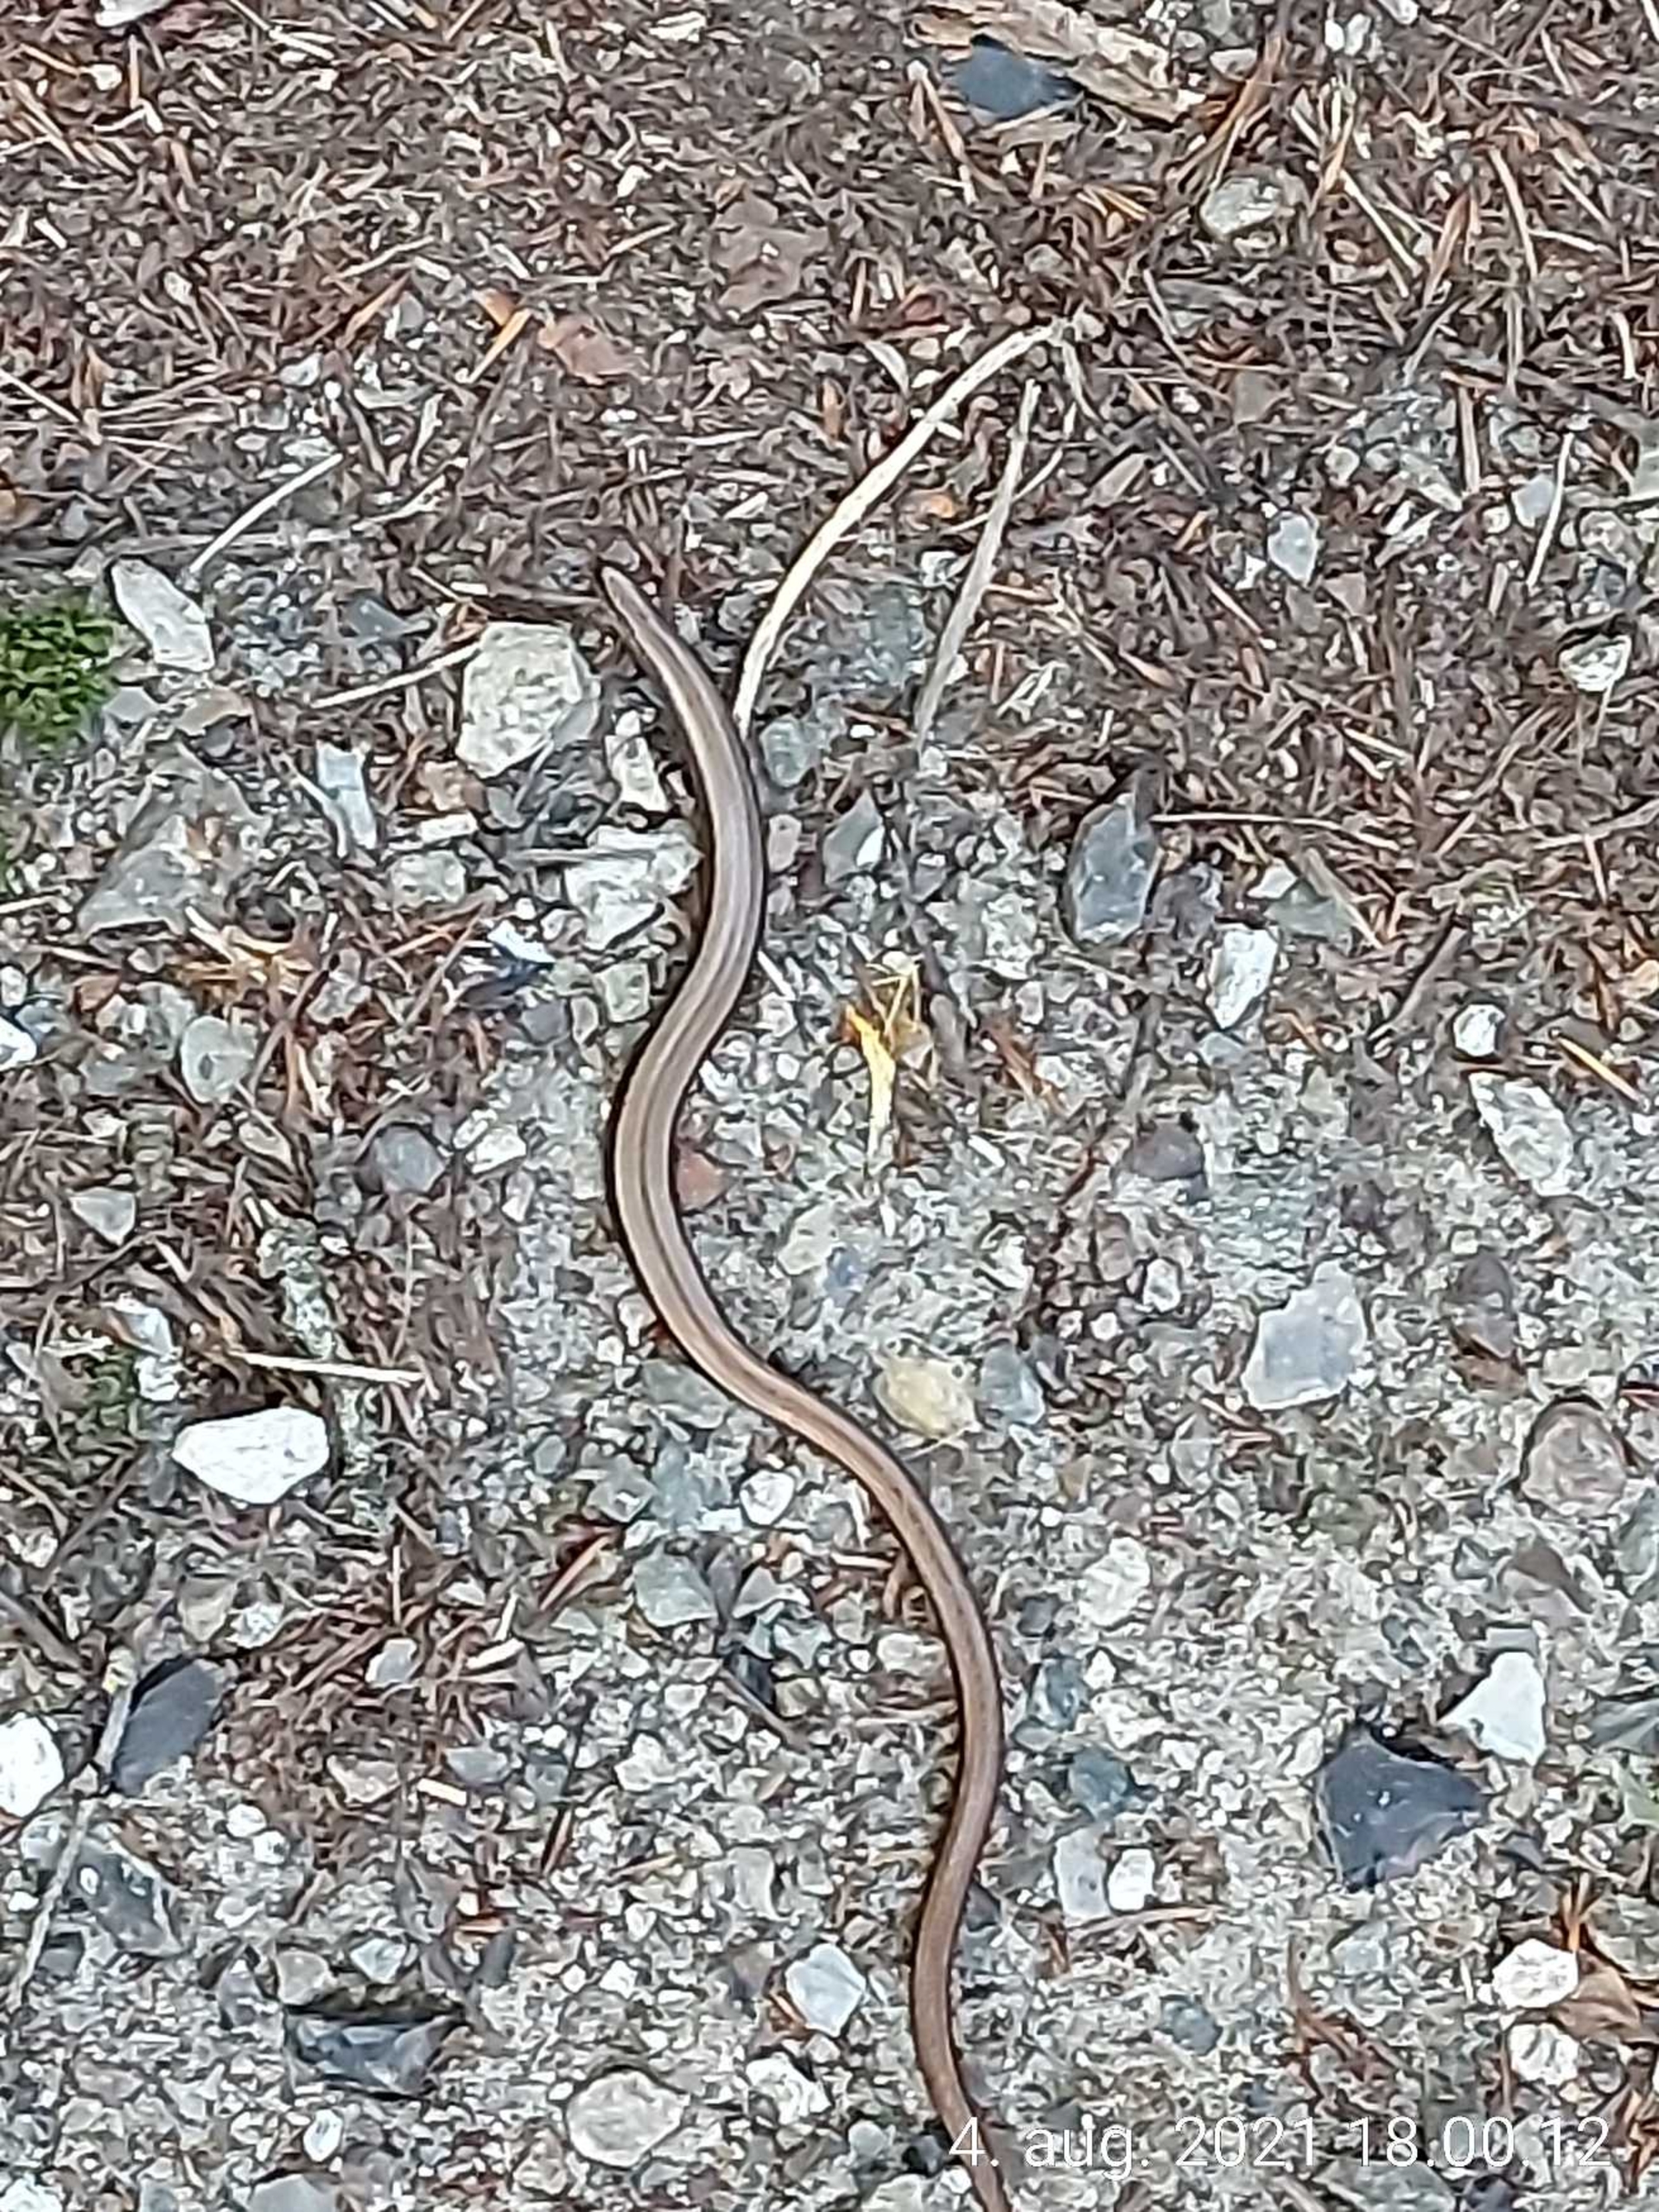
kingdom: Animalia
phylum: Chordata
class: Squamata
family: Anguidae
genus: Anguis
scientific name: Anguis fragilis
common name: Stålorm
